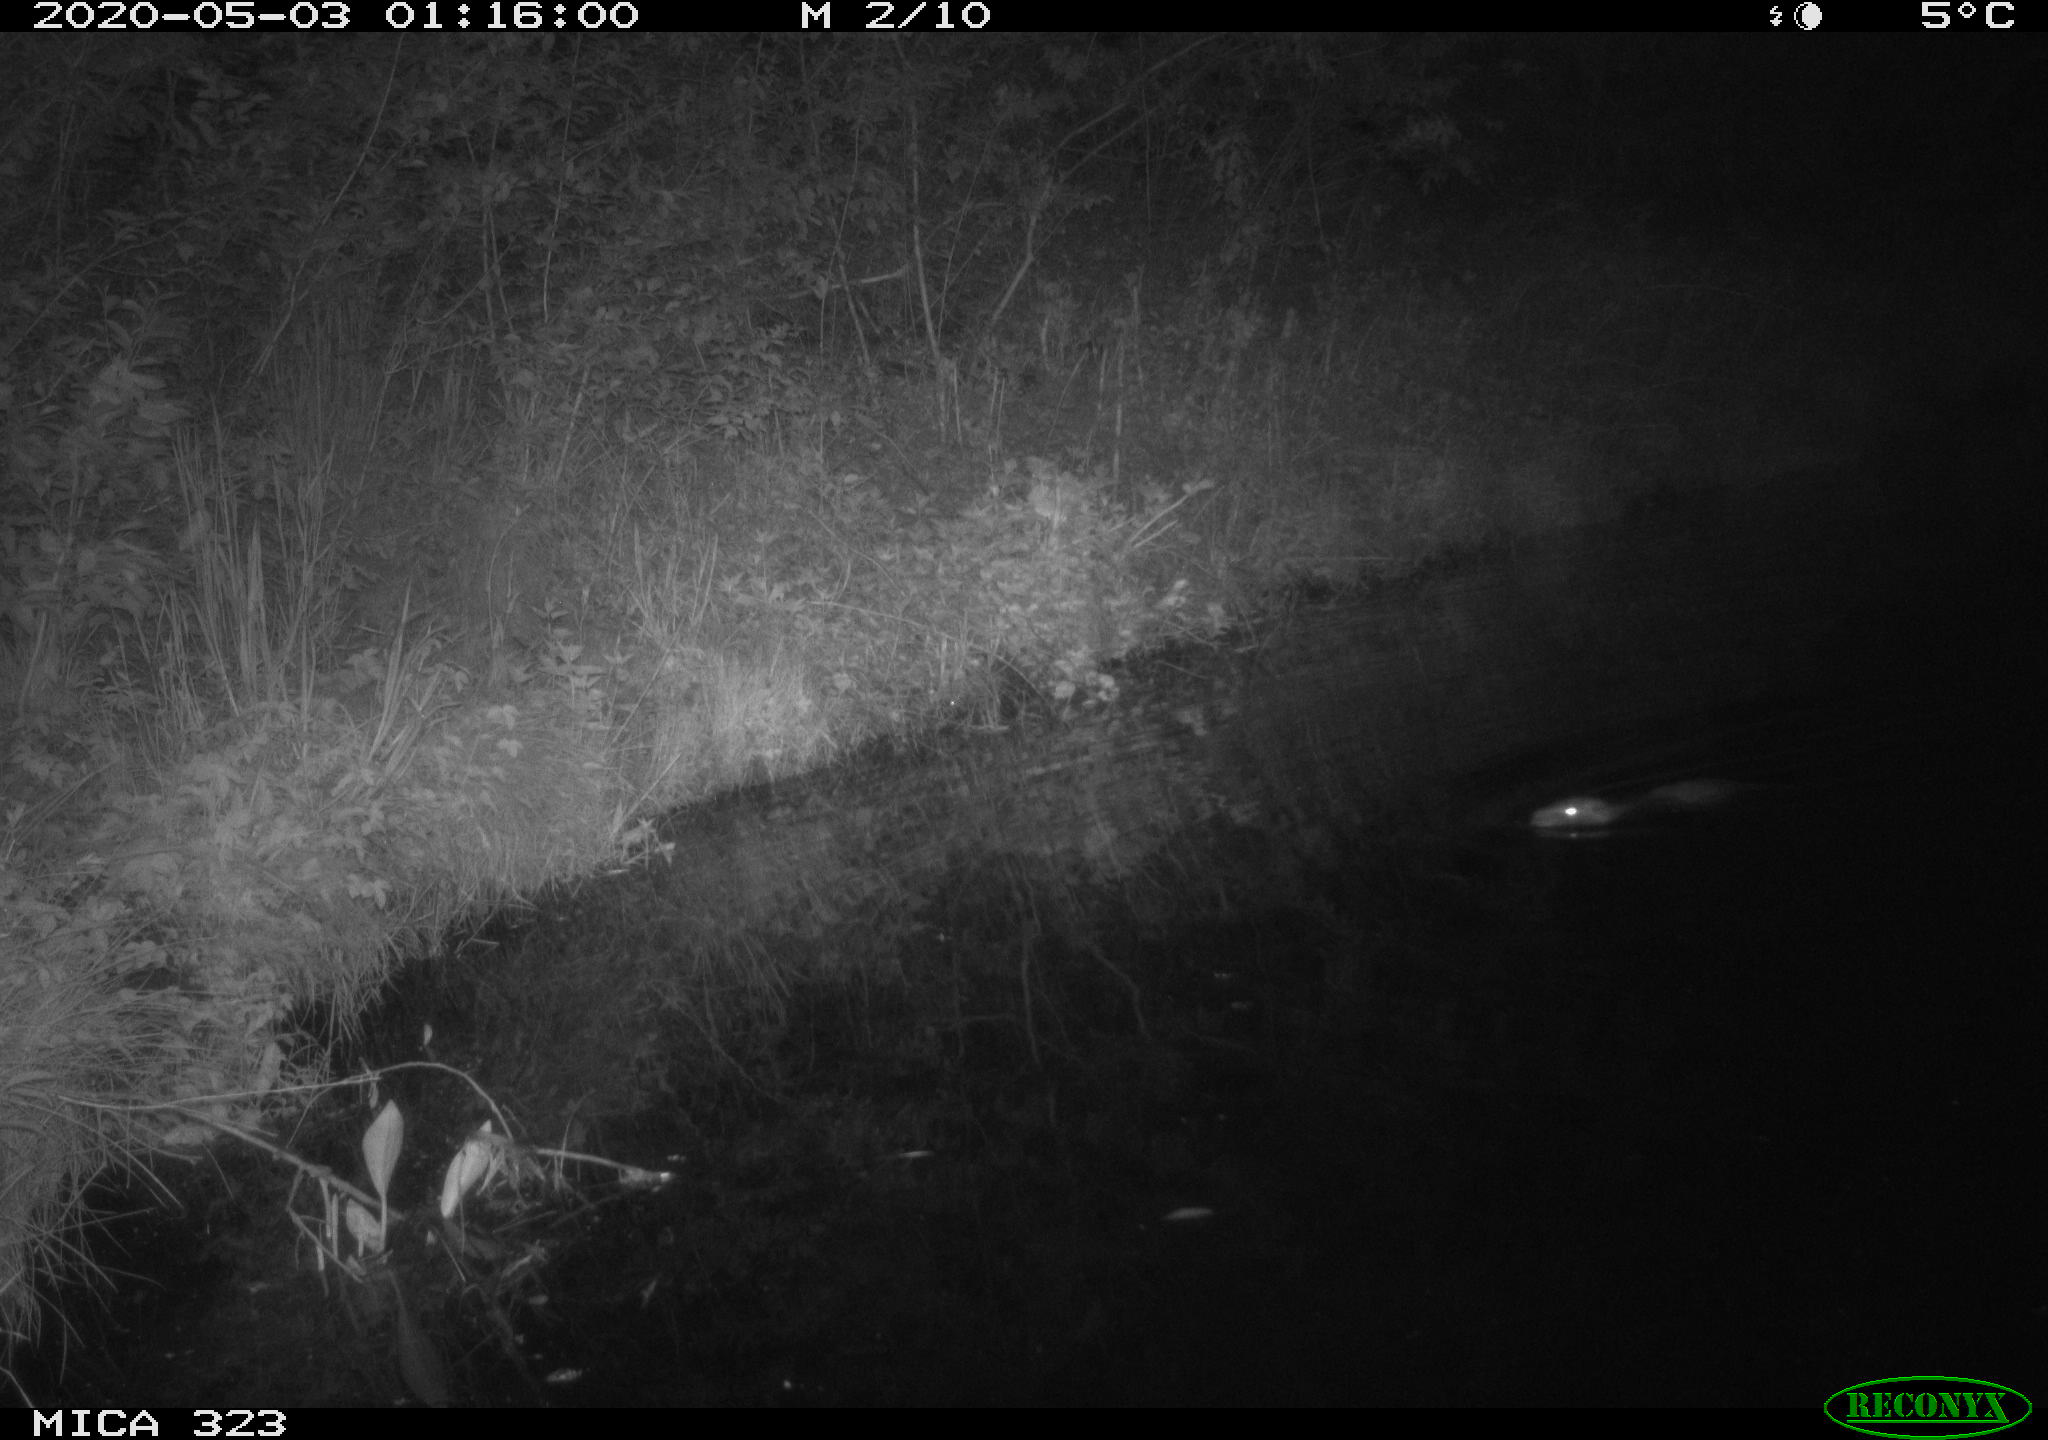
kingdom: Animalia
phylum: Chordata
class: Mammalia
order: Rodentia
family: Myocastoridae
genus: Myocastor
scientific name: Myocastor coypus
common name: Coypu
